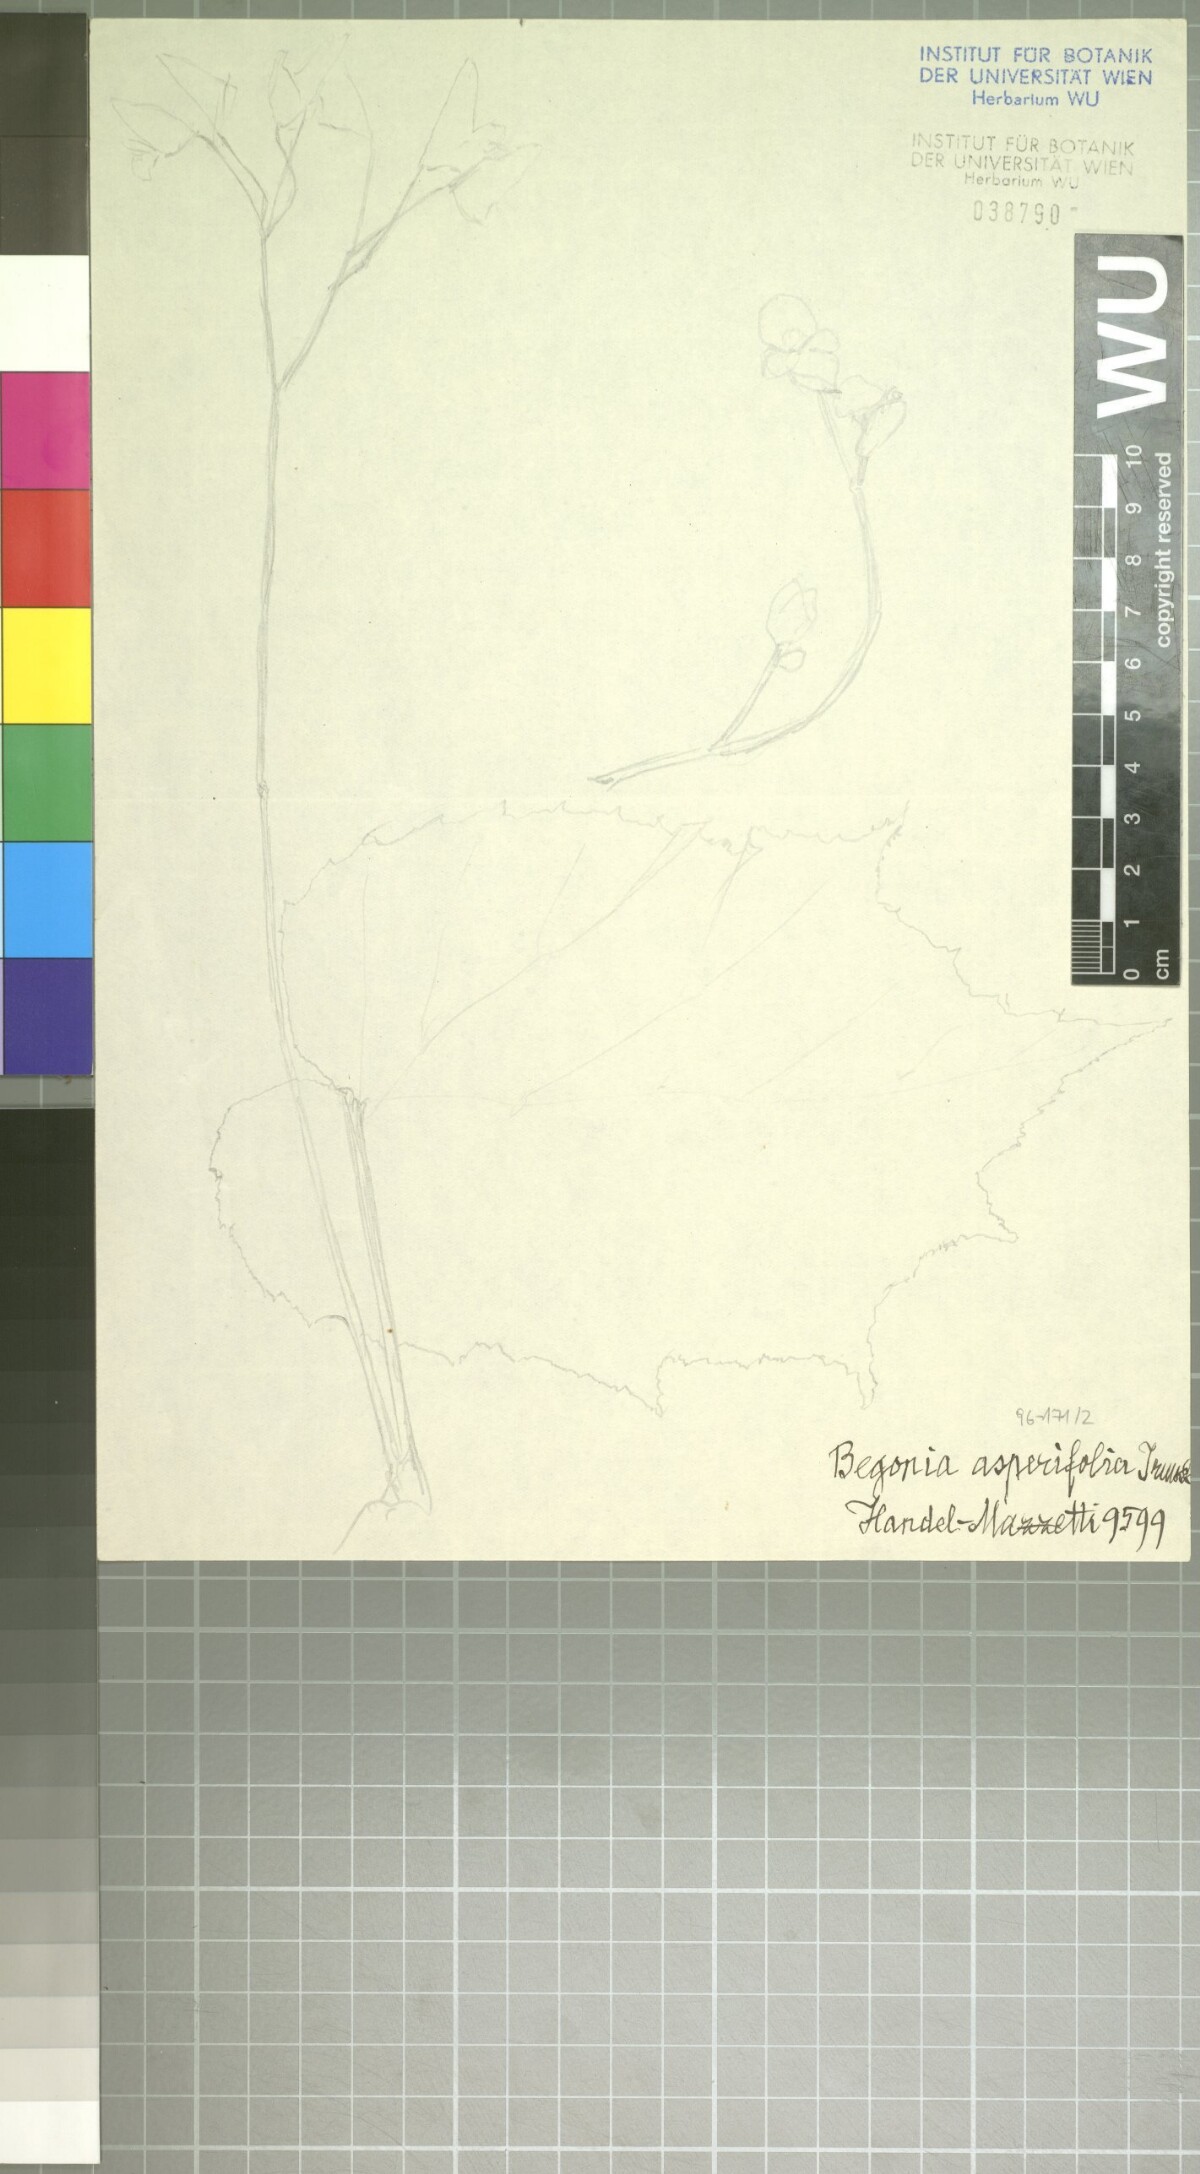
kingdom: Plantae
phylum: Tracheophyta
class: Magnoliopsida
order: Cucurbitales
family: Begoniaceae
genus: Begonia
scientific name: Begonia asperifolia
